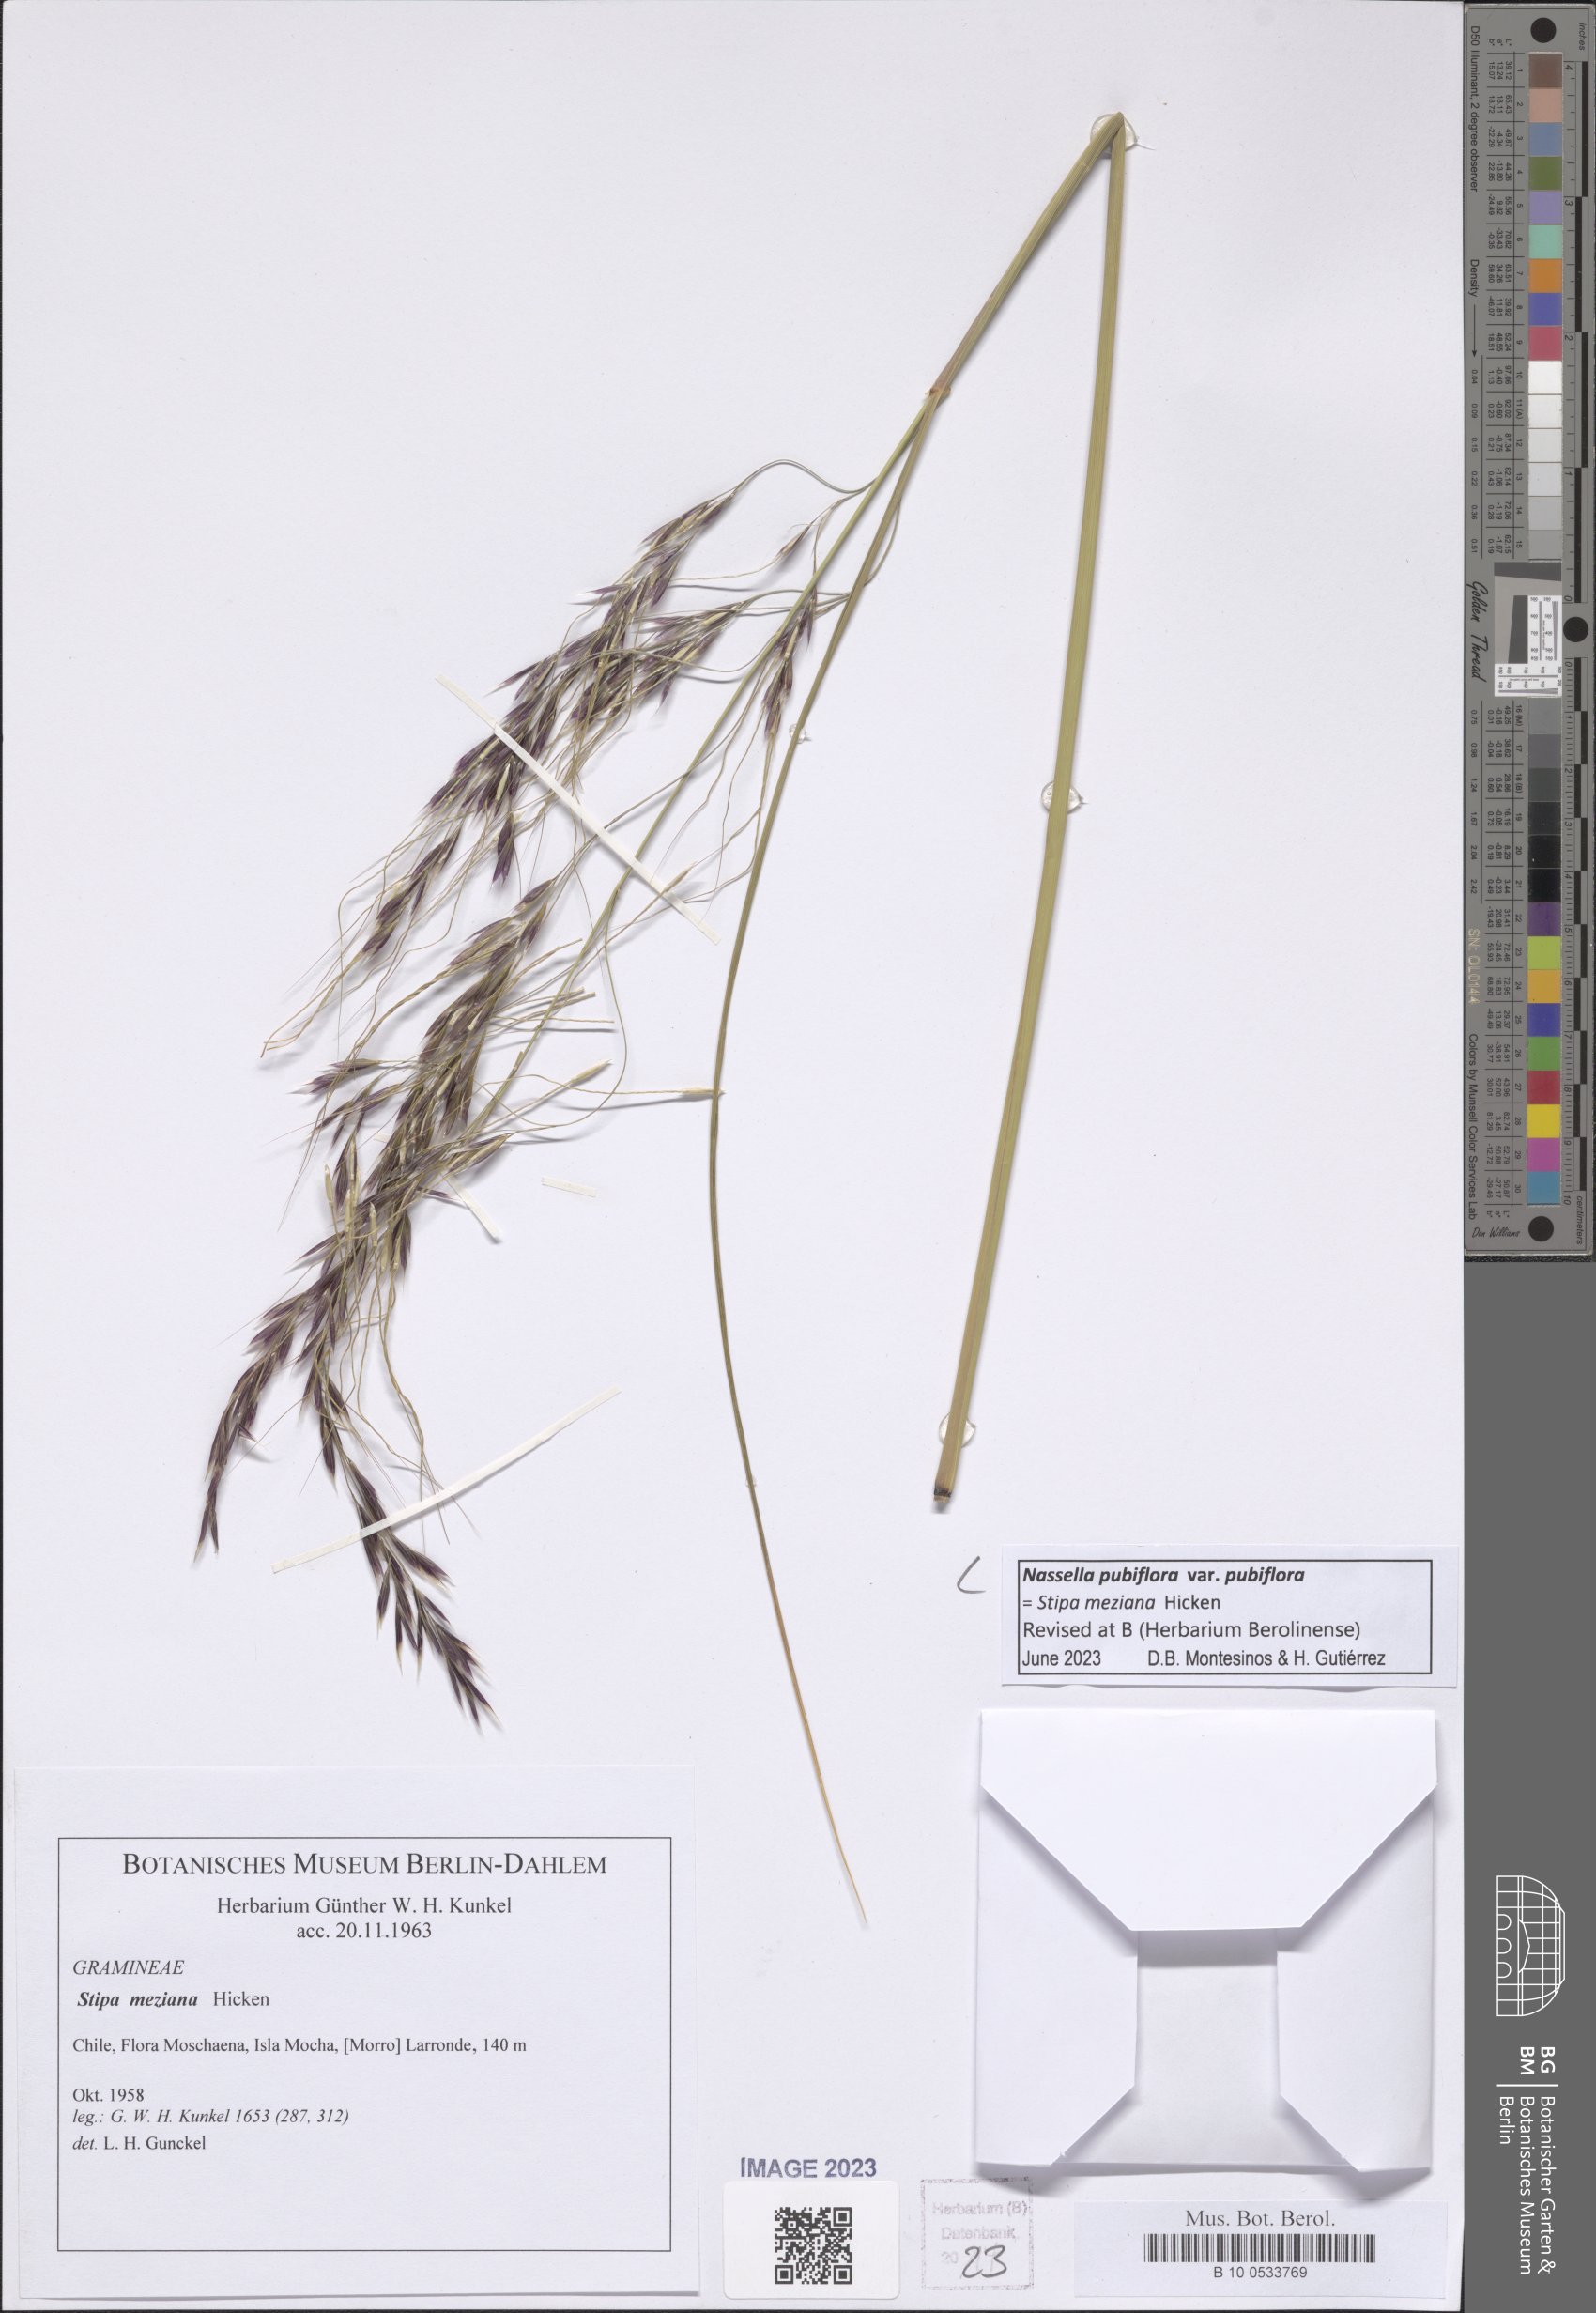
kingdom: Plantae
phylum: Tracheophyta
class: Liliopsida
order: Poales
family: Poaceae
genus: Nassella
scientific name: Nassella pubiflora
